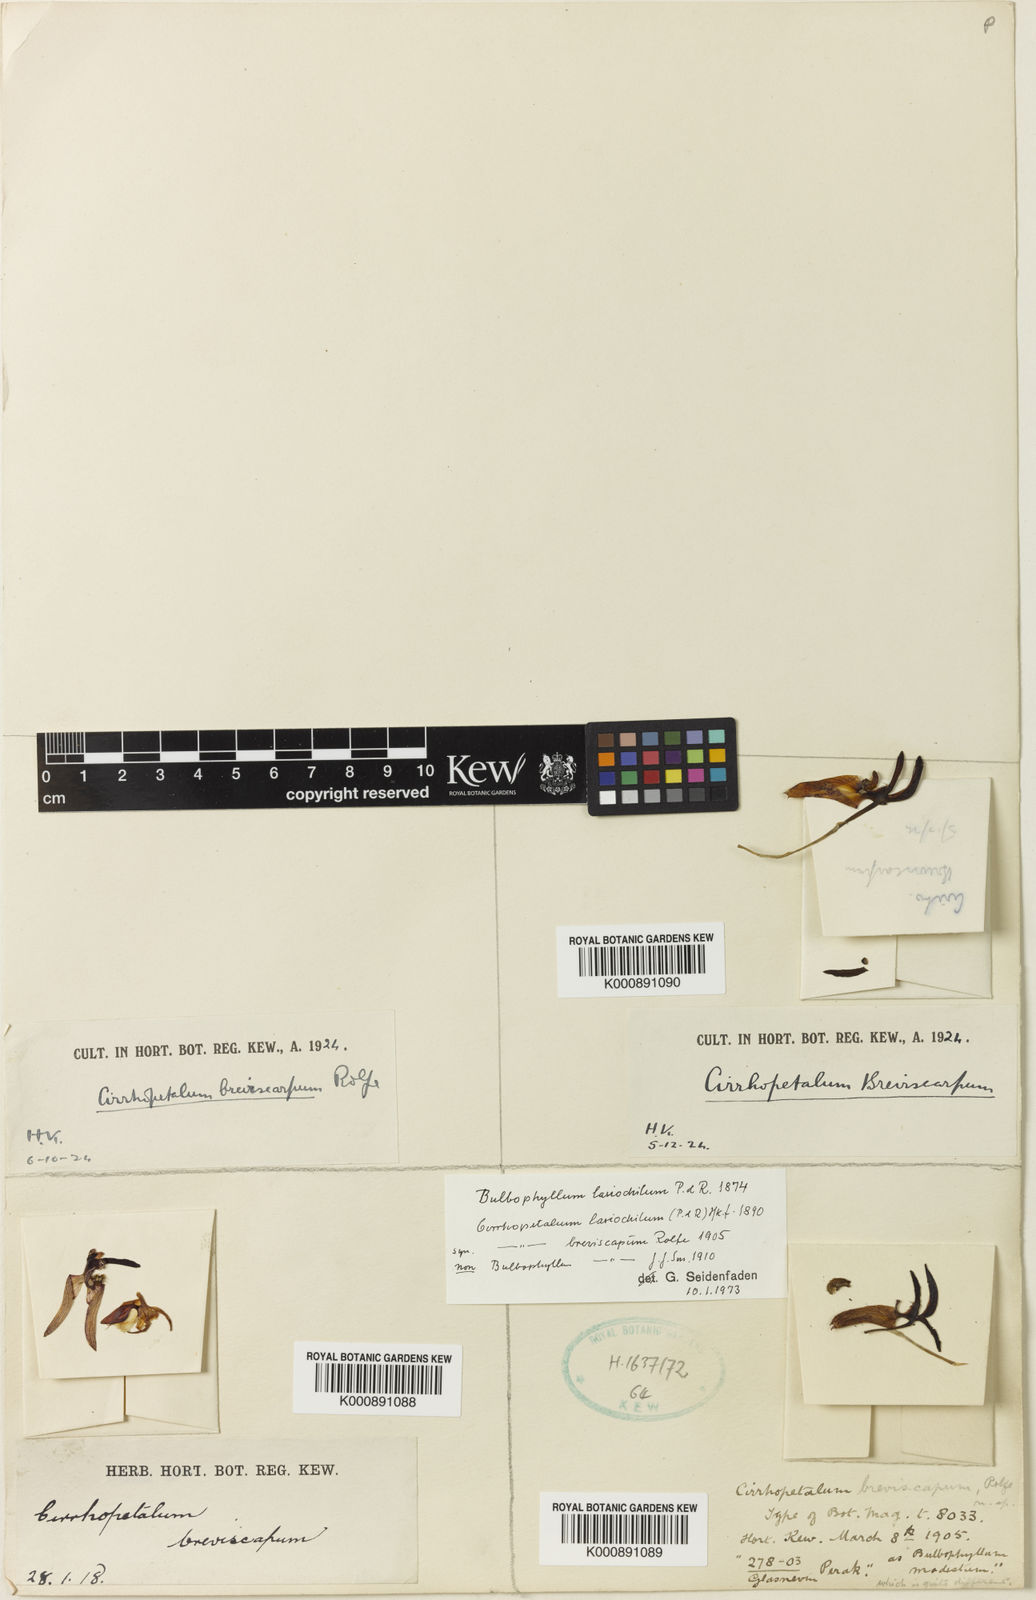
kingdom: Plantae
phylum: Tracheophyta
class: Liliopsida
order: Asparagales
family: Orchidaceae
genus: Bulbophyllum
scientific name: Bulbophyllum lasiochilum
